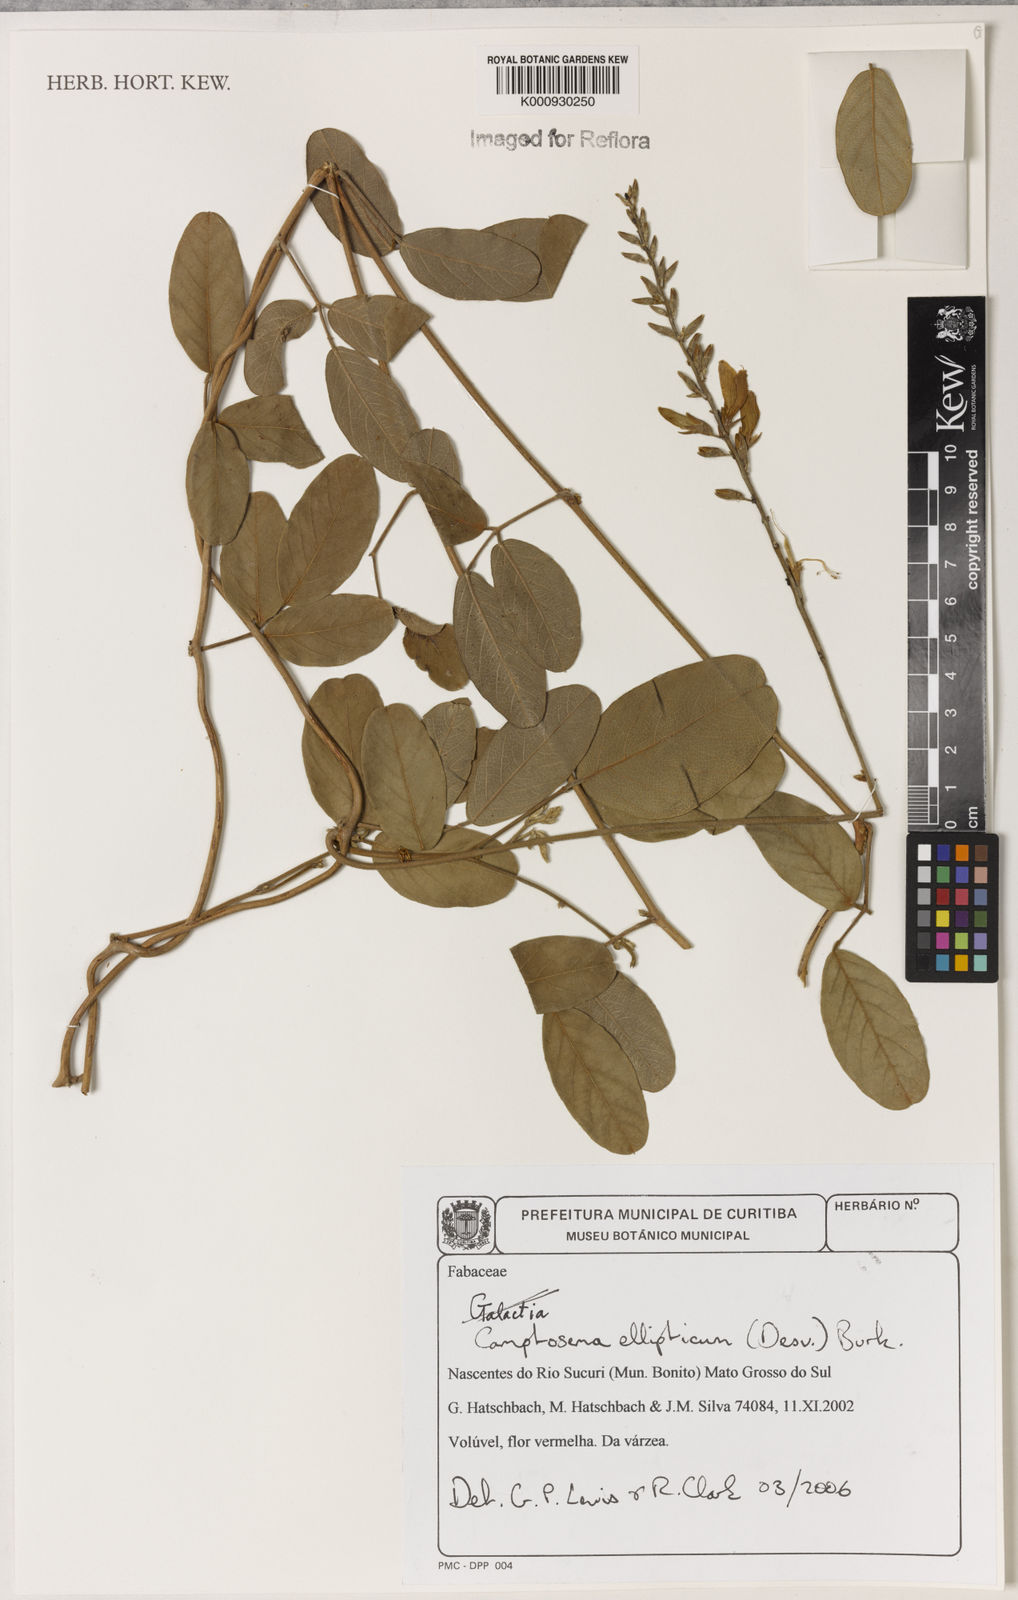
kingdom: Plantae
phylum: Tracheophyta
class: Magnoliopsida
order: Fabales
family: Fabaceae
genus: Camptosema
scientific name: Camptosema
